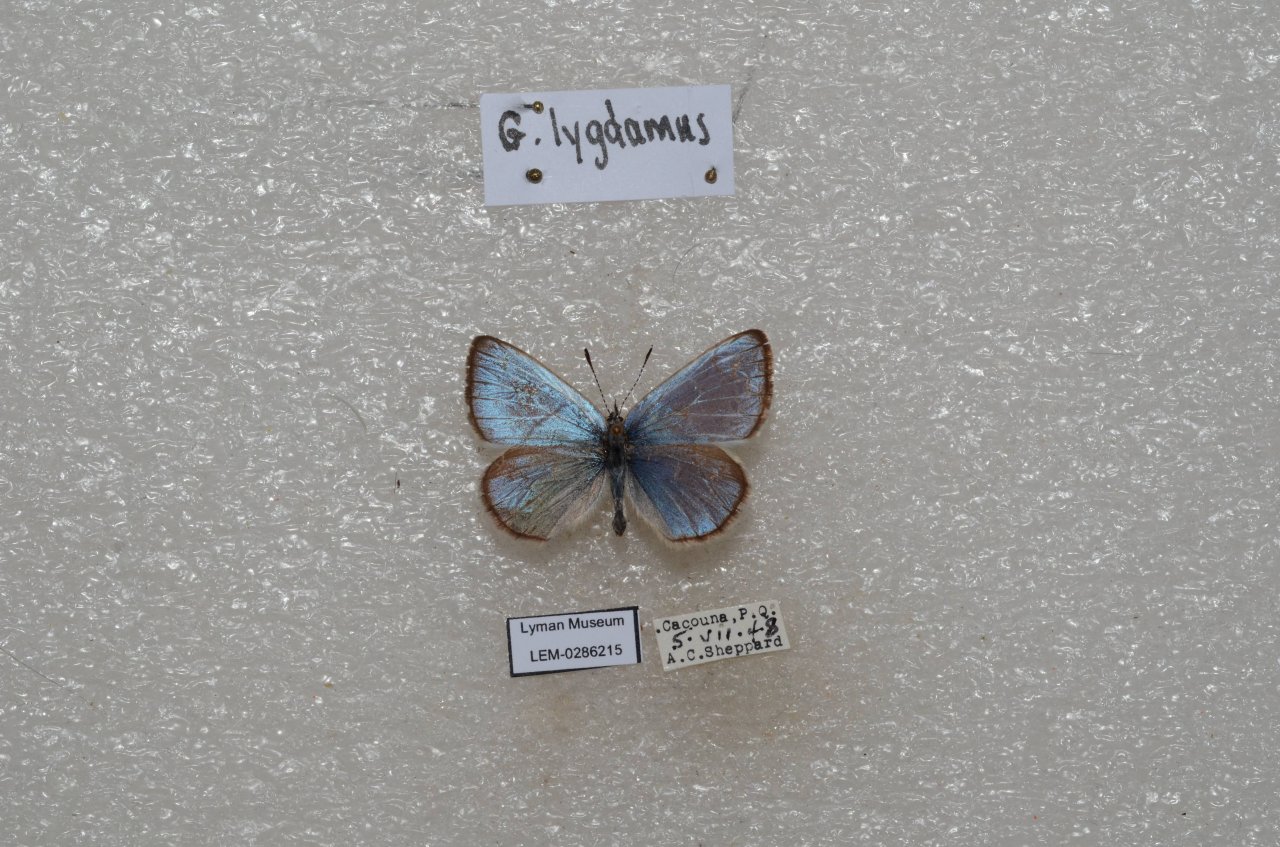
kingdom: Animalia
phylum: Arthropoda
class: Insecta
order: Lepidoptera
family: Lycaenidae
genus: Glaucopsyche
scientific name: Glaucopsyche lygdamus
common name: Silvery Blue
